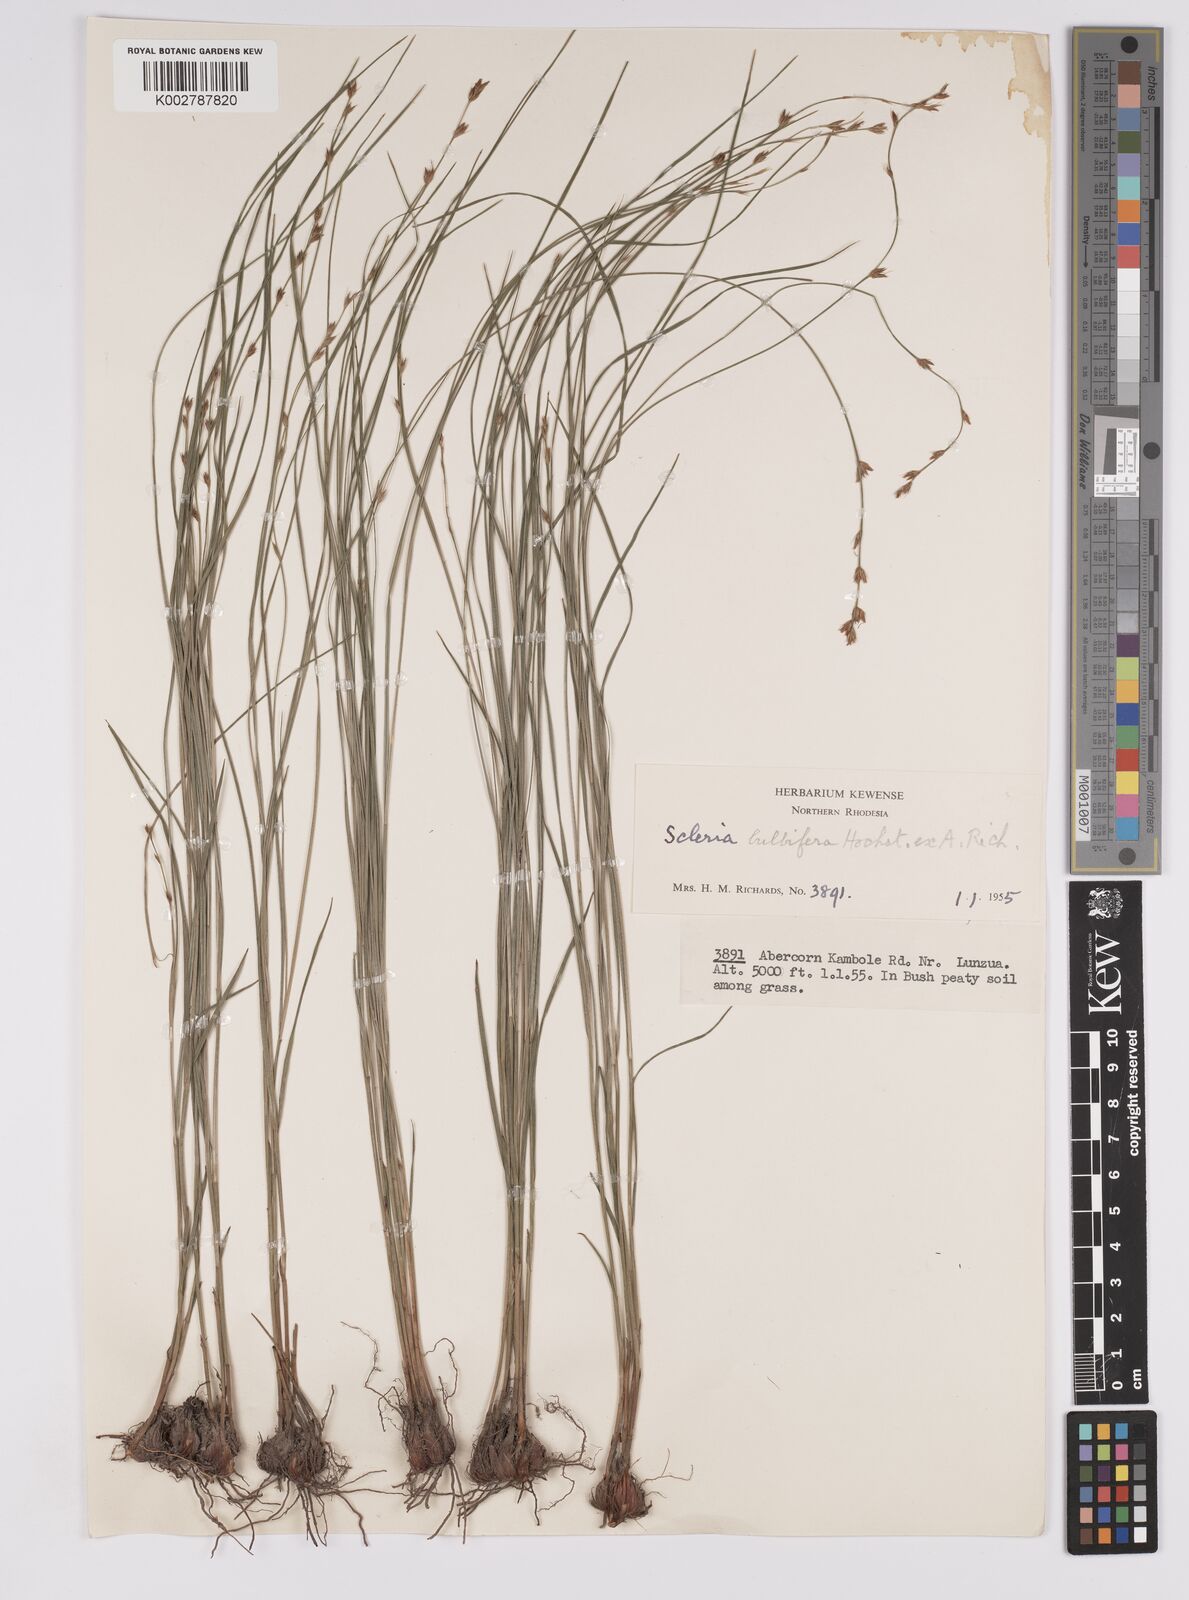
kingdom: Plantae
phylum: Tracheophyta
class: Liliopsida
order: Poales
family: Cyperaceae
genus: Scleria
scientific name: Scleria bulbifera
